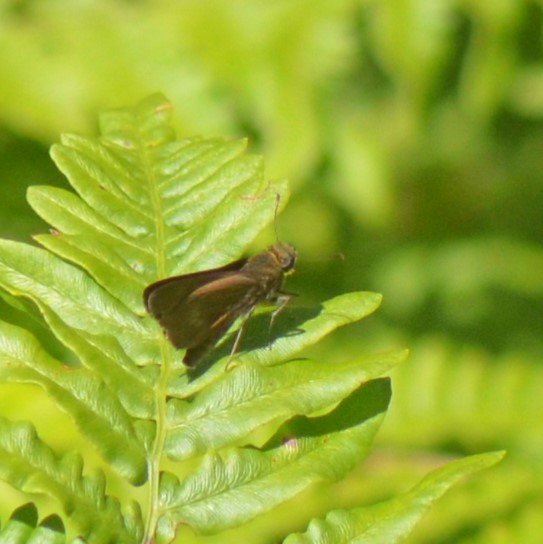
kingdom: Animalia
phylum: Arthropoda
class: Insecta
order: Lepidoptera
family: Hesperiidae
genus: Euphyes
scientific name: Euphyes vestris
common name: Dun Skipper
